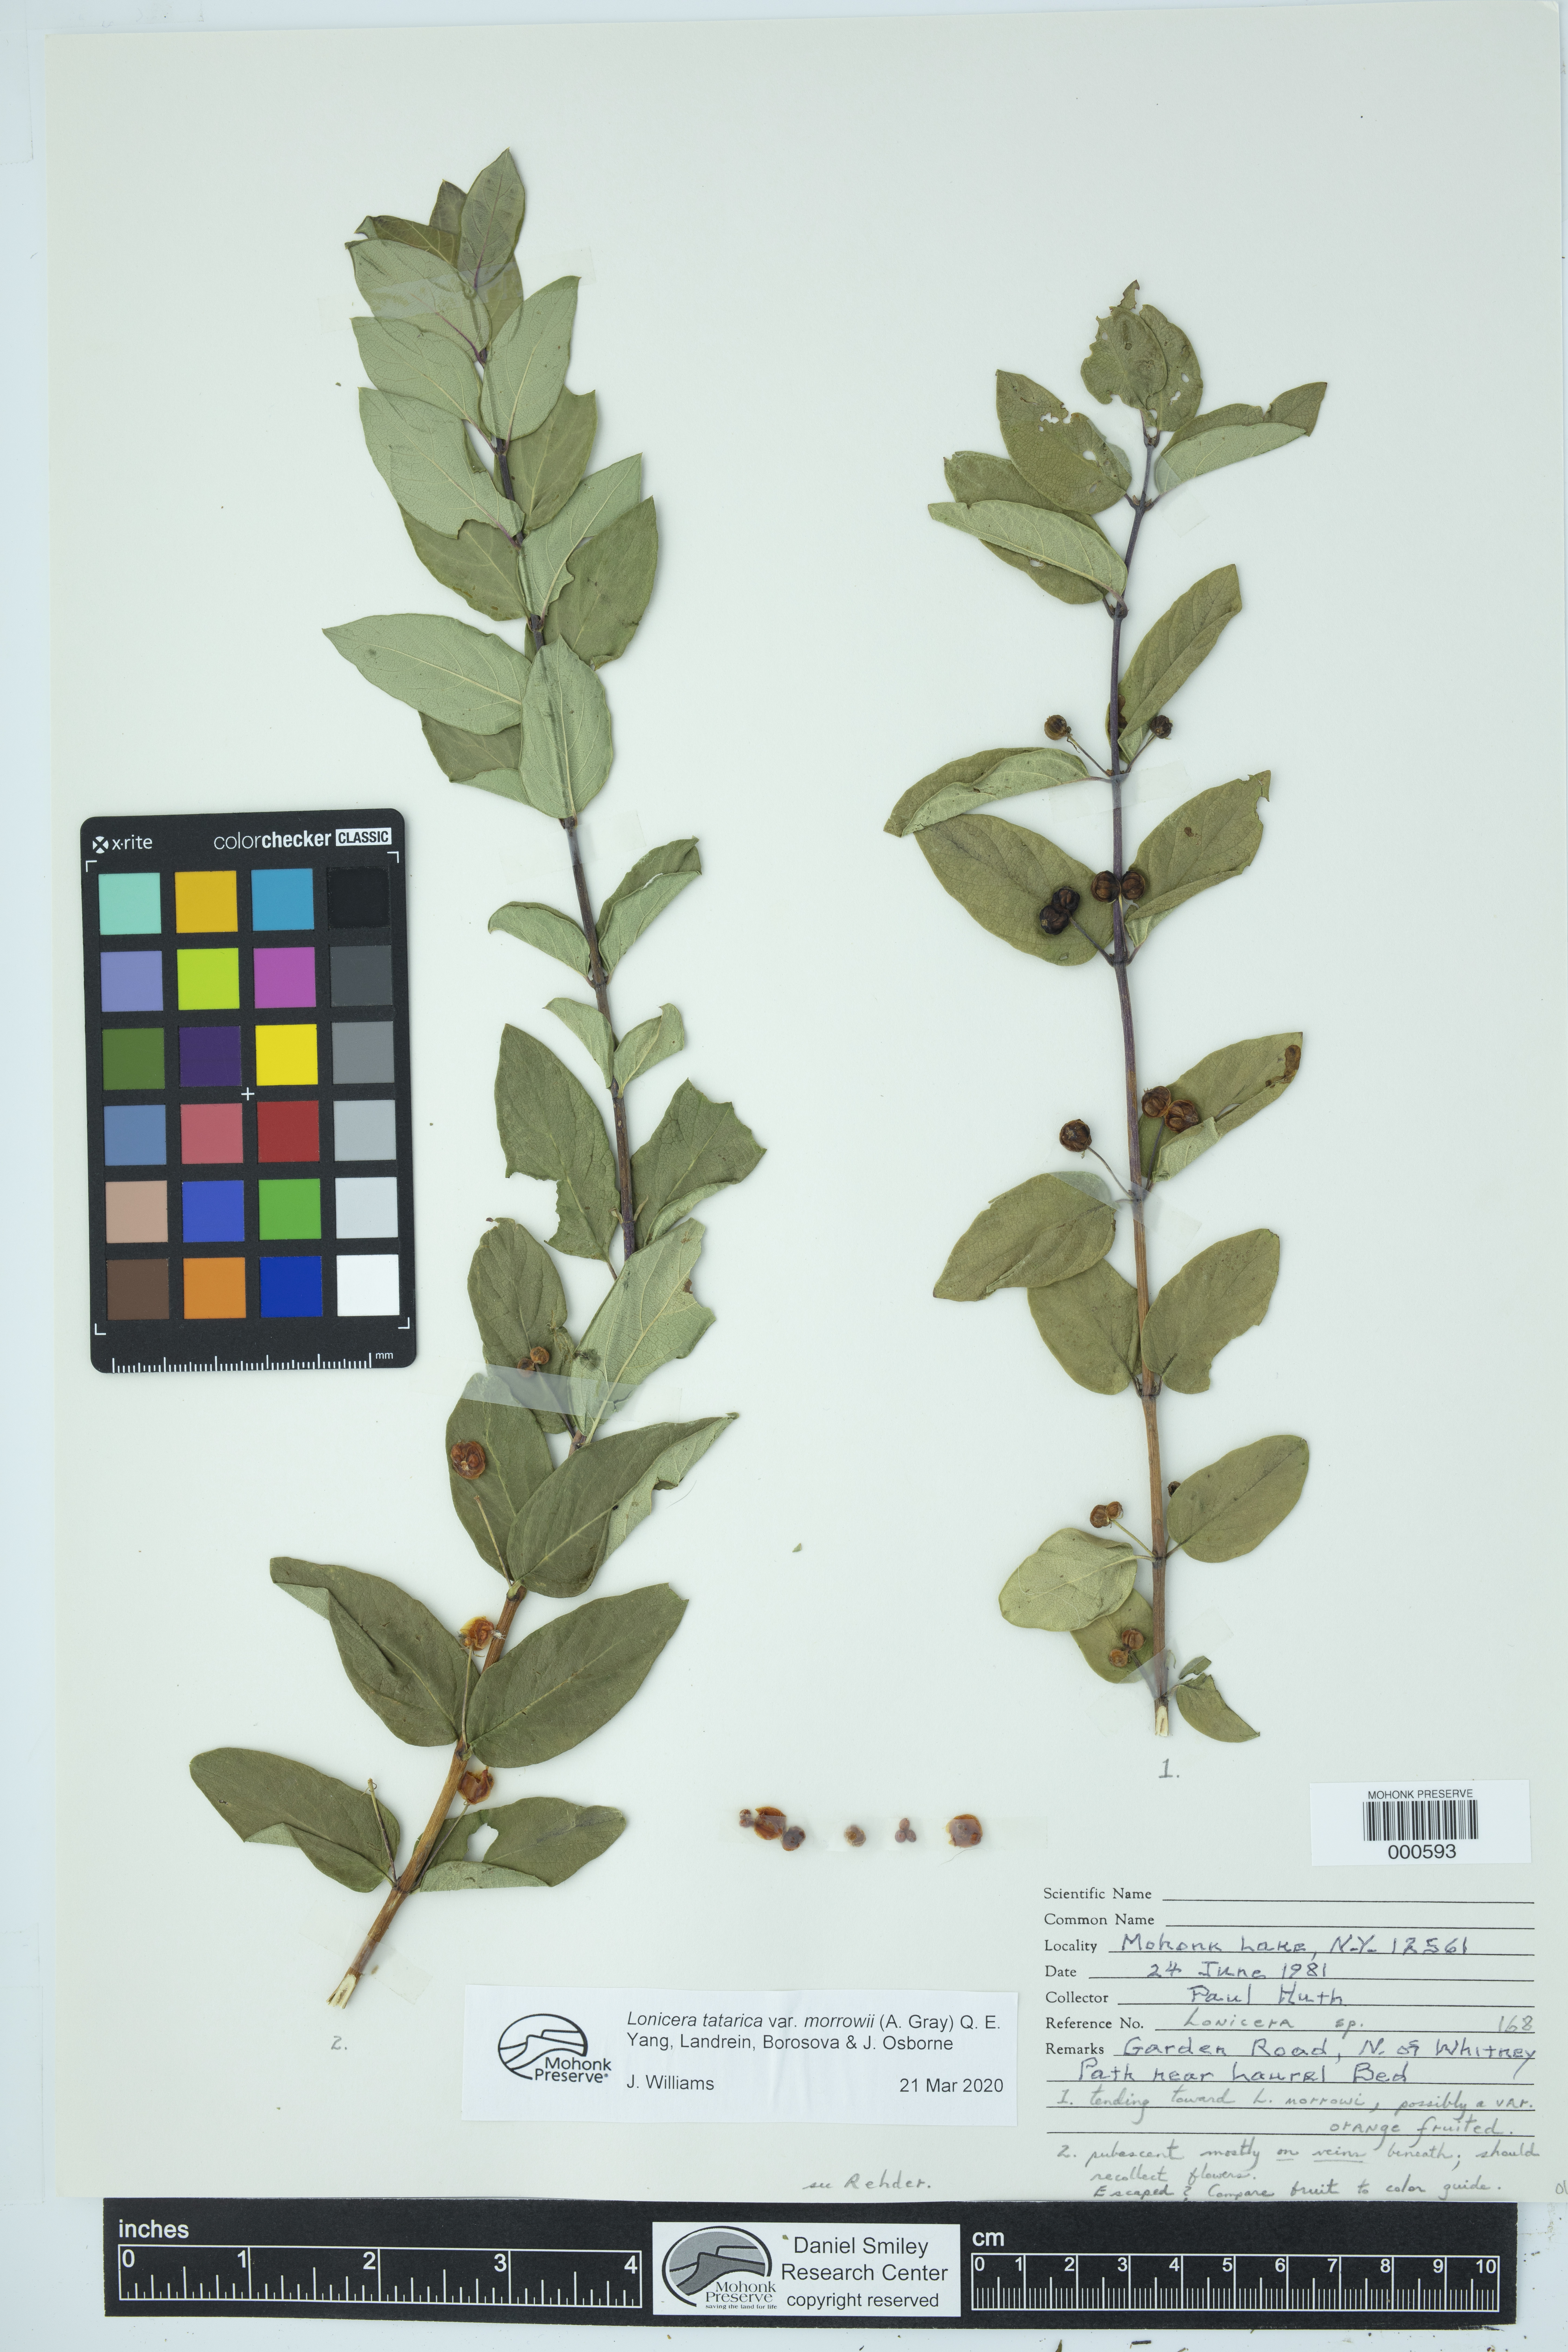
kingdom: Plantae
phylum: Tracheophyta
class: Magnoliopsida
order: Dipsacales
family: Caprifoliaceae
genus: Lonicera
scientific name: Lonicera morrowii
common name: Morrow's honeysuckle
